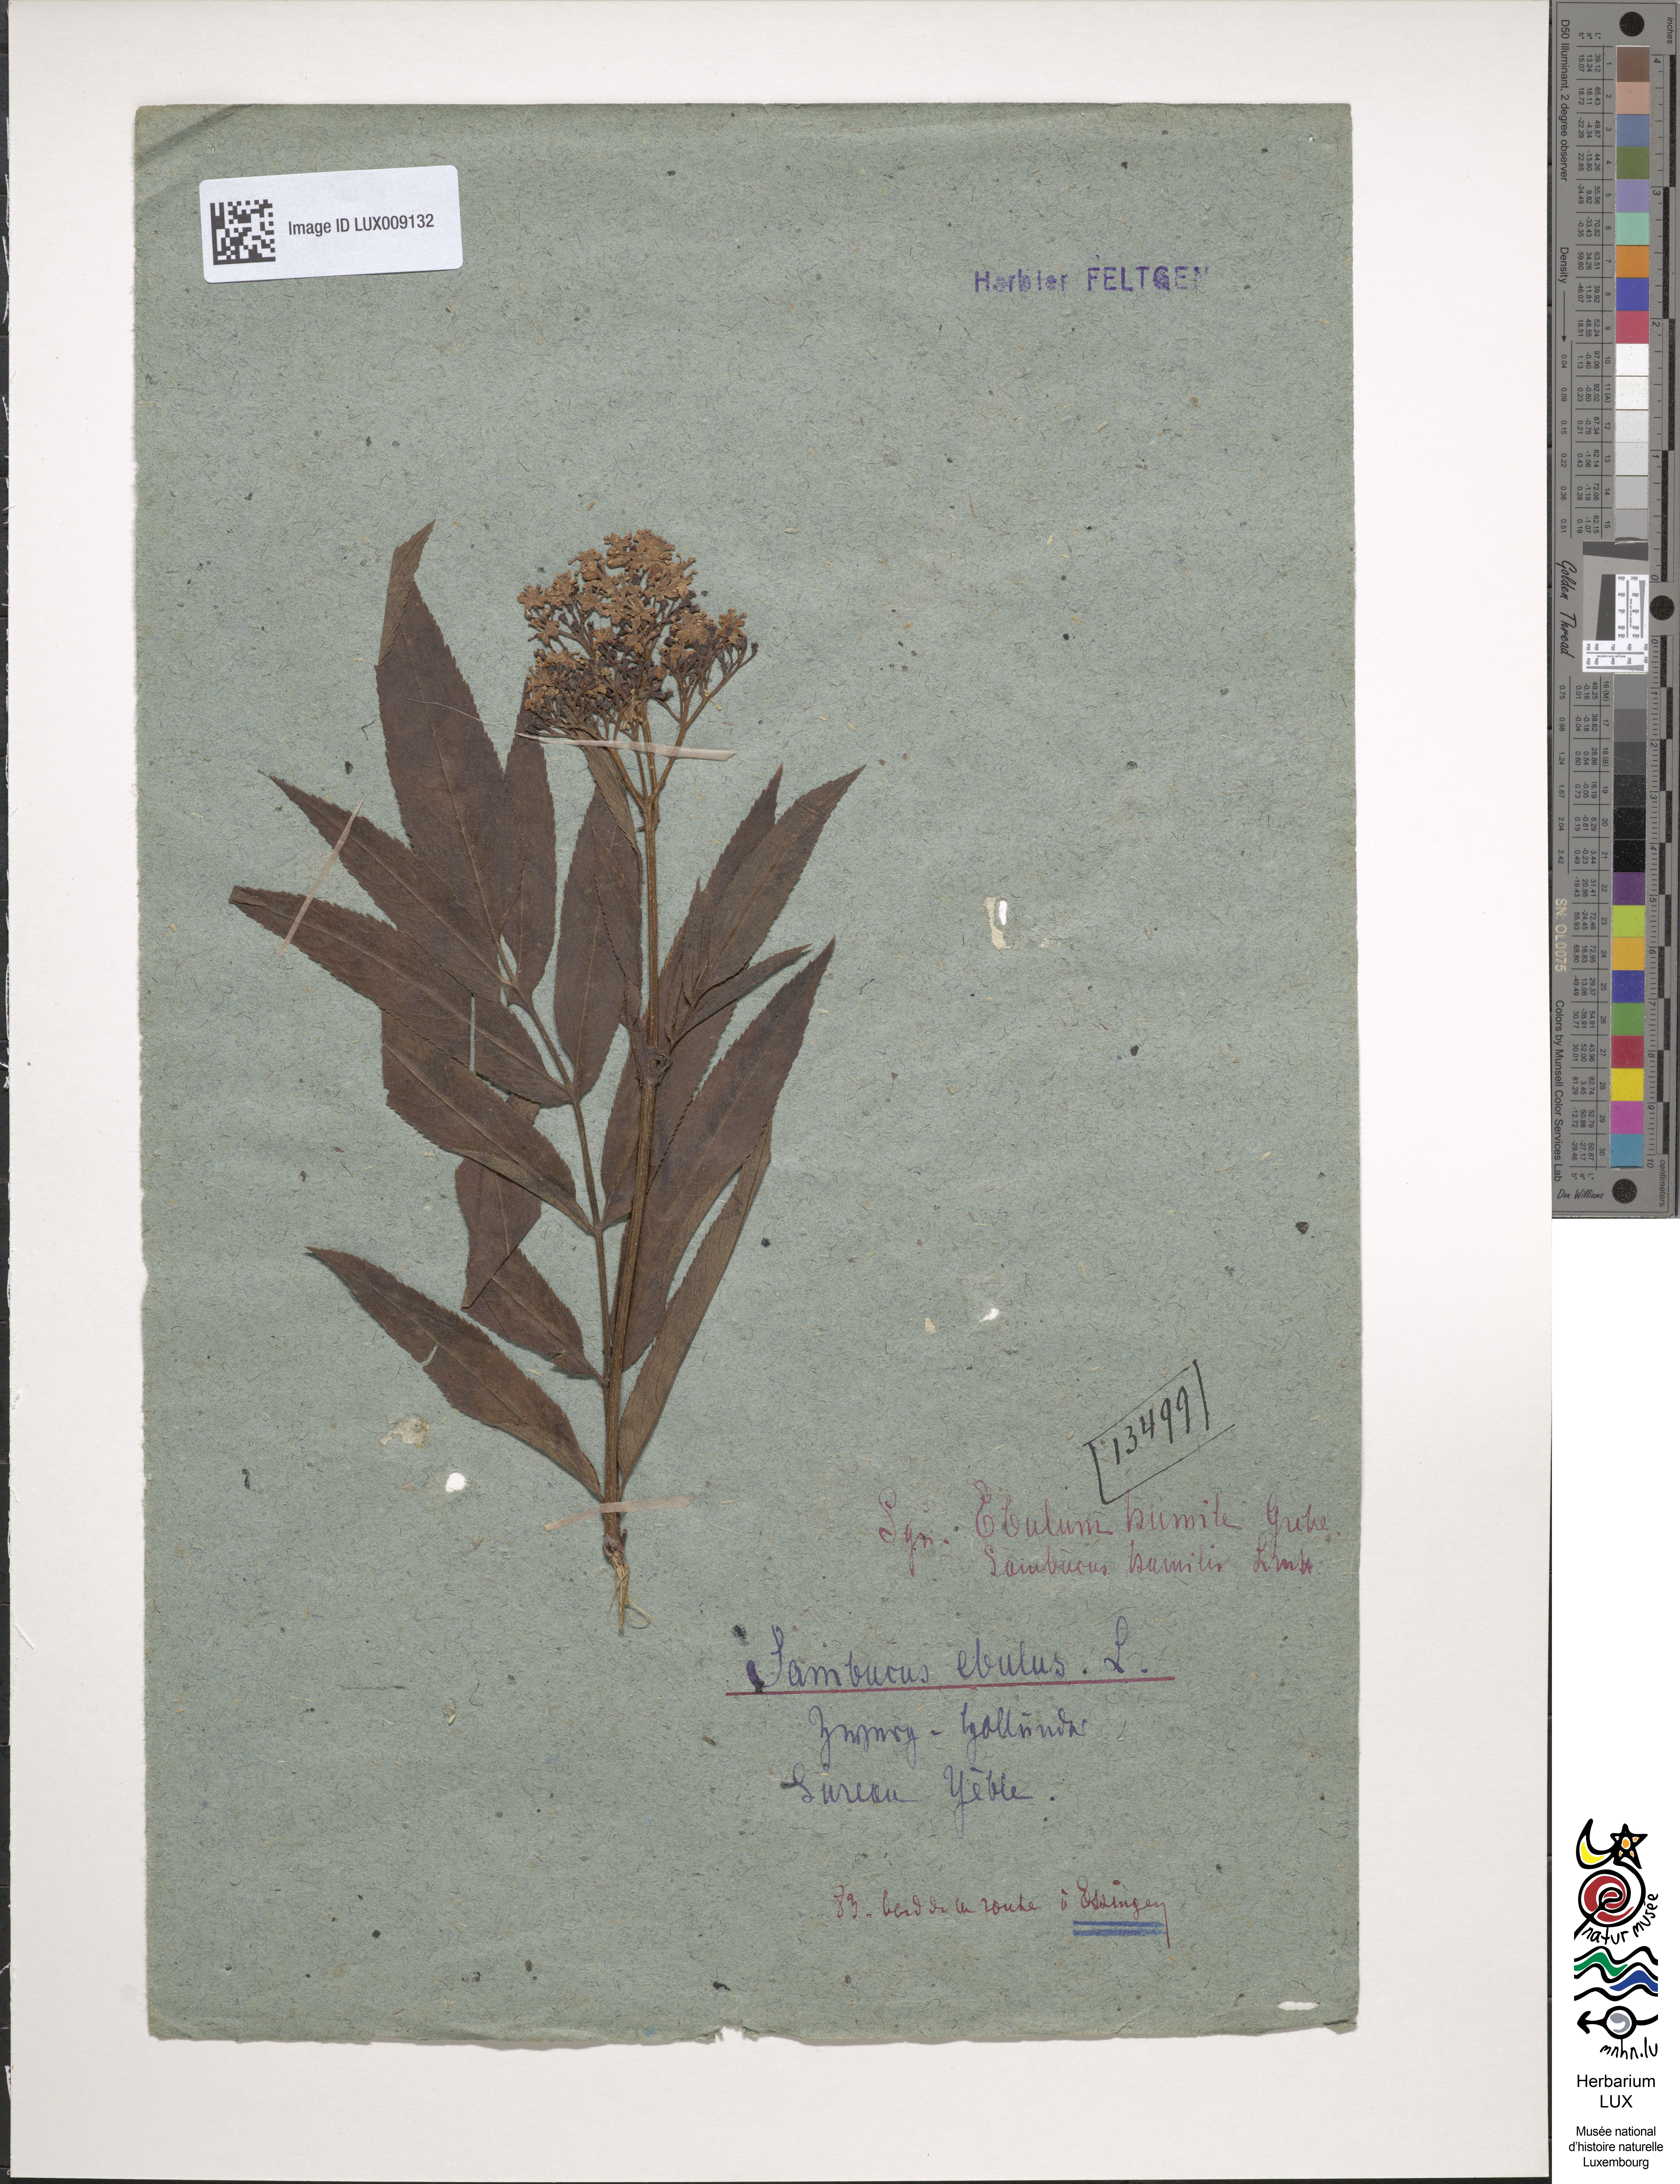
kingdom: Plantae
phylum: Tracheophyta
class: Magnoliopsida
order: Dipsacales
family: Viburnaceae
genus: Sambucus
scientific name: Sambucus ebulus
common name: Dwarf elder
